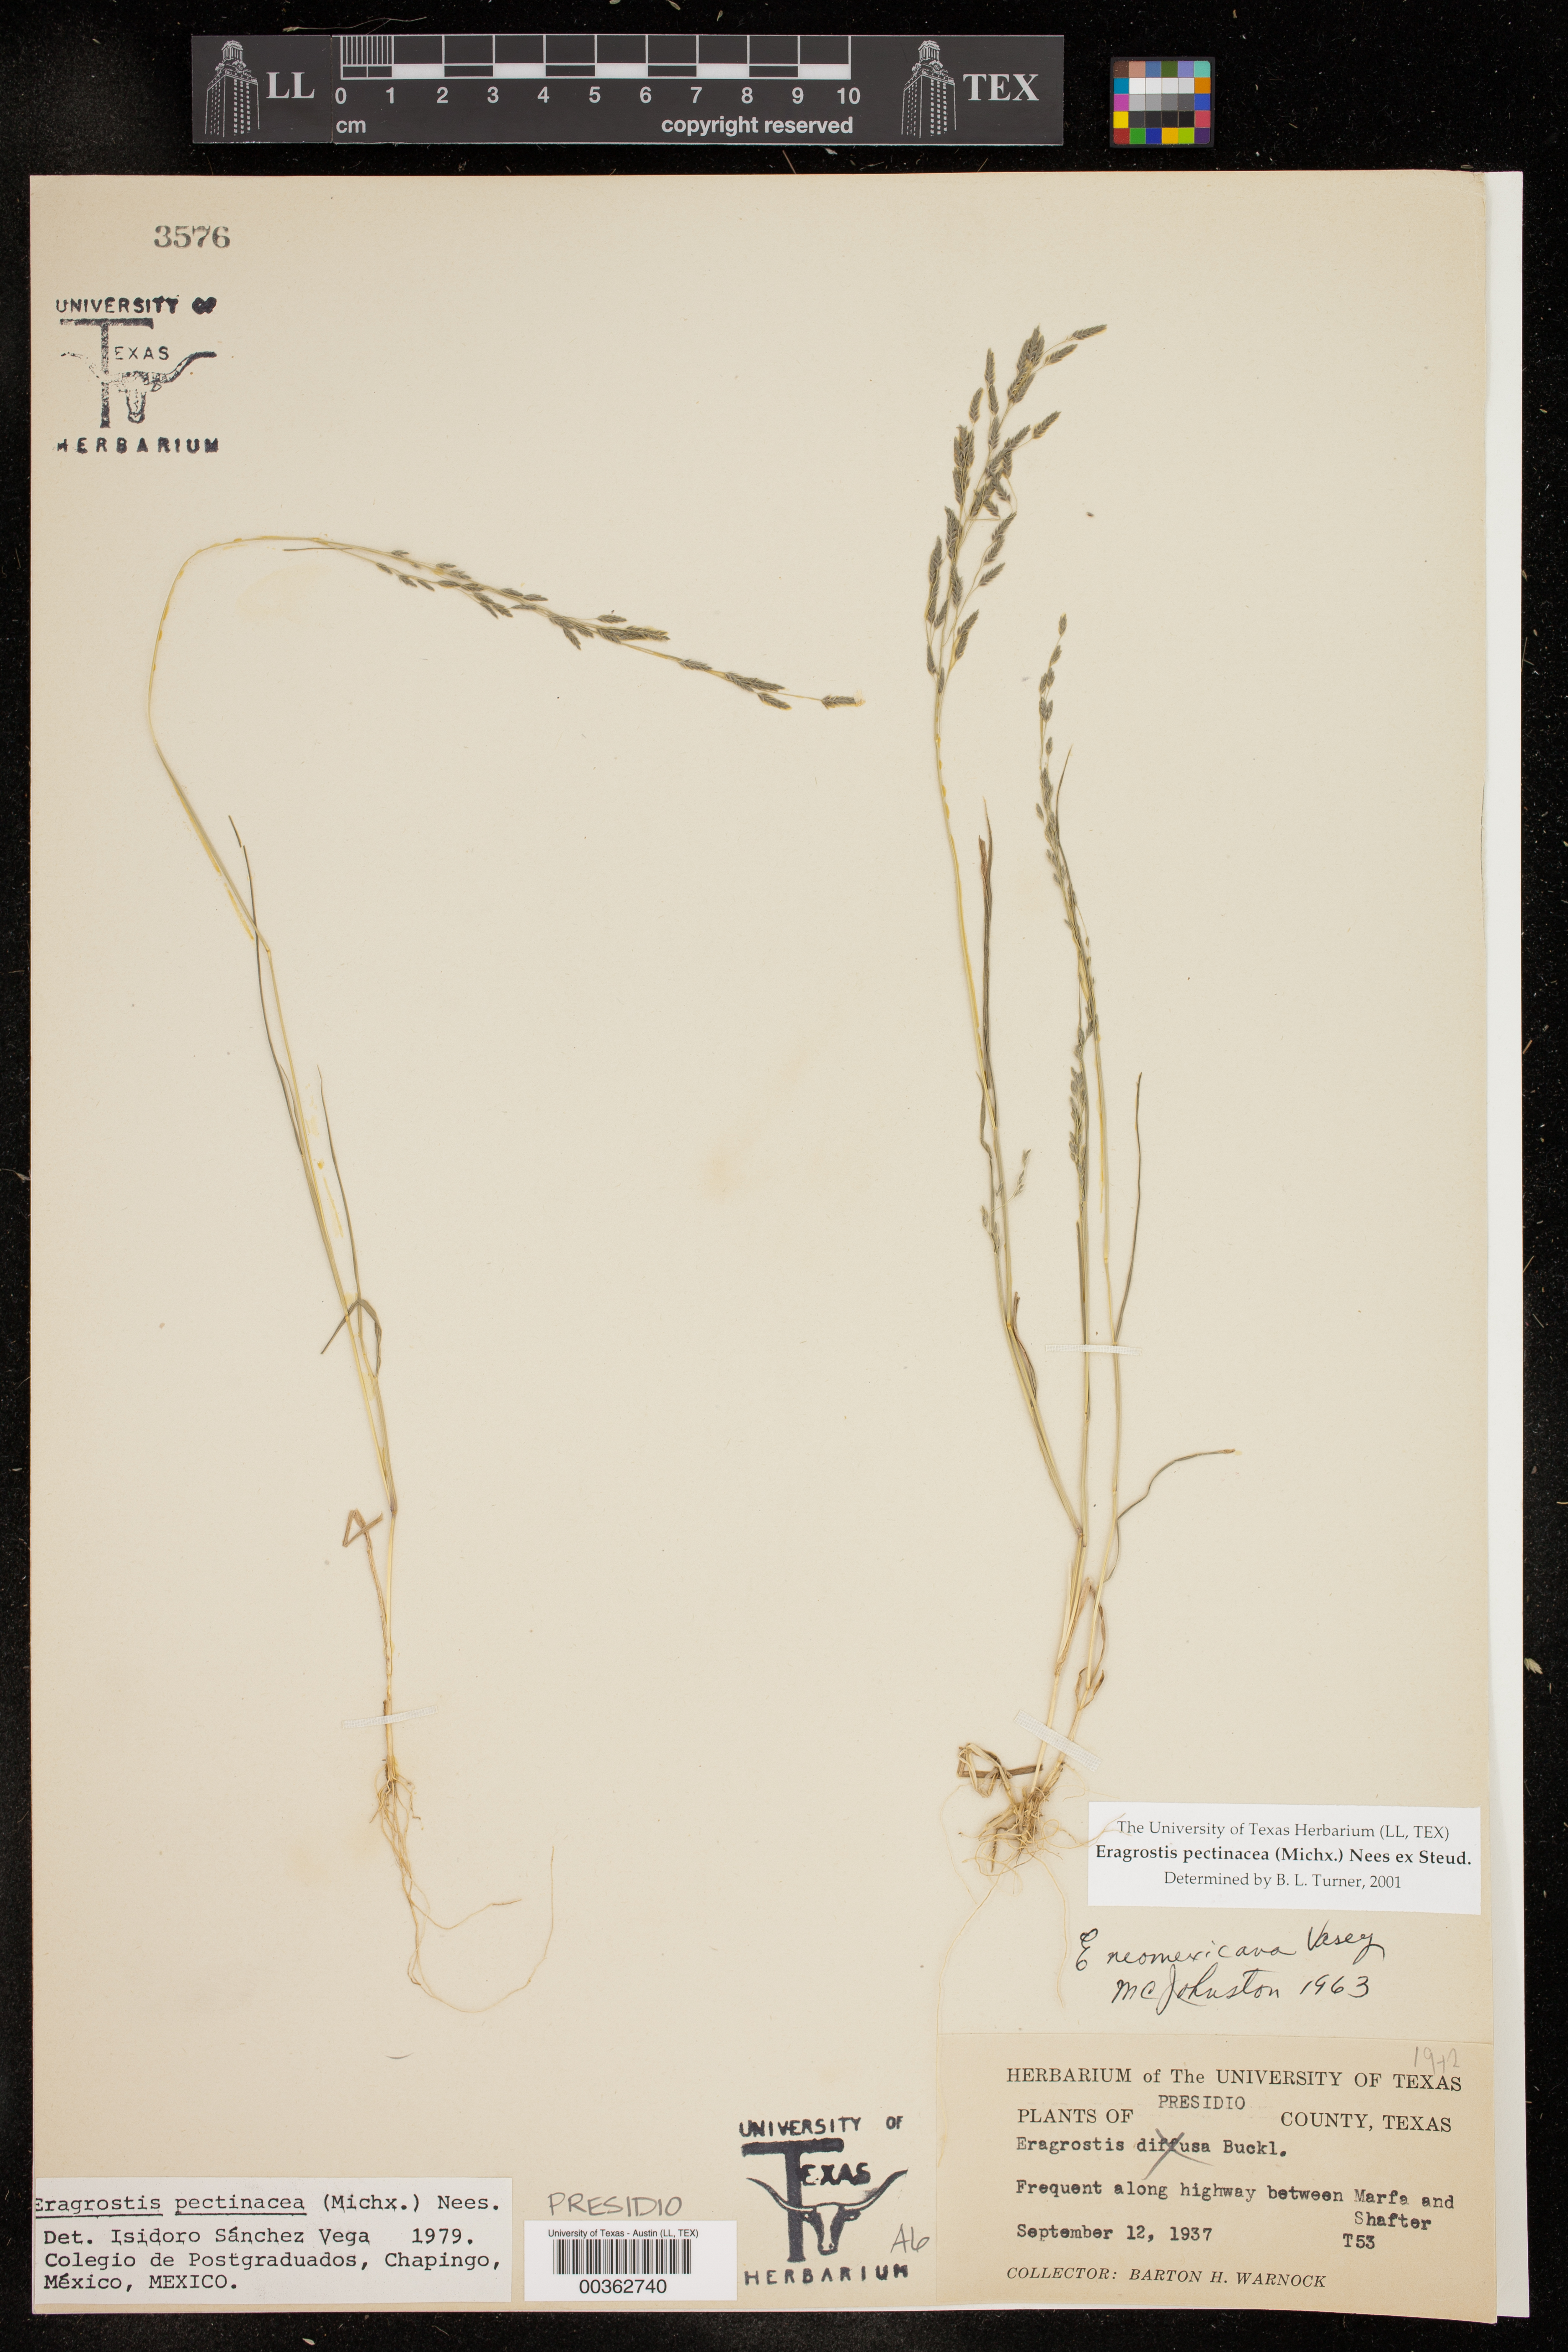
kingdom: Plantae
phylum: Tracheophyta
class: Liliopsida
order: Poales
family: Poaceae
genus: Eragrostis
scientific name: Eragrostis pectinacea
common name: Tufted lovegrass
